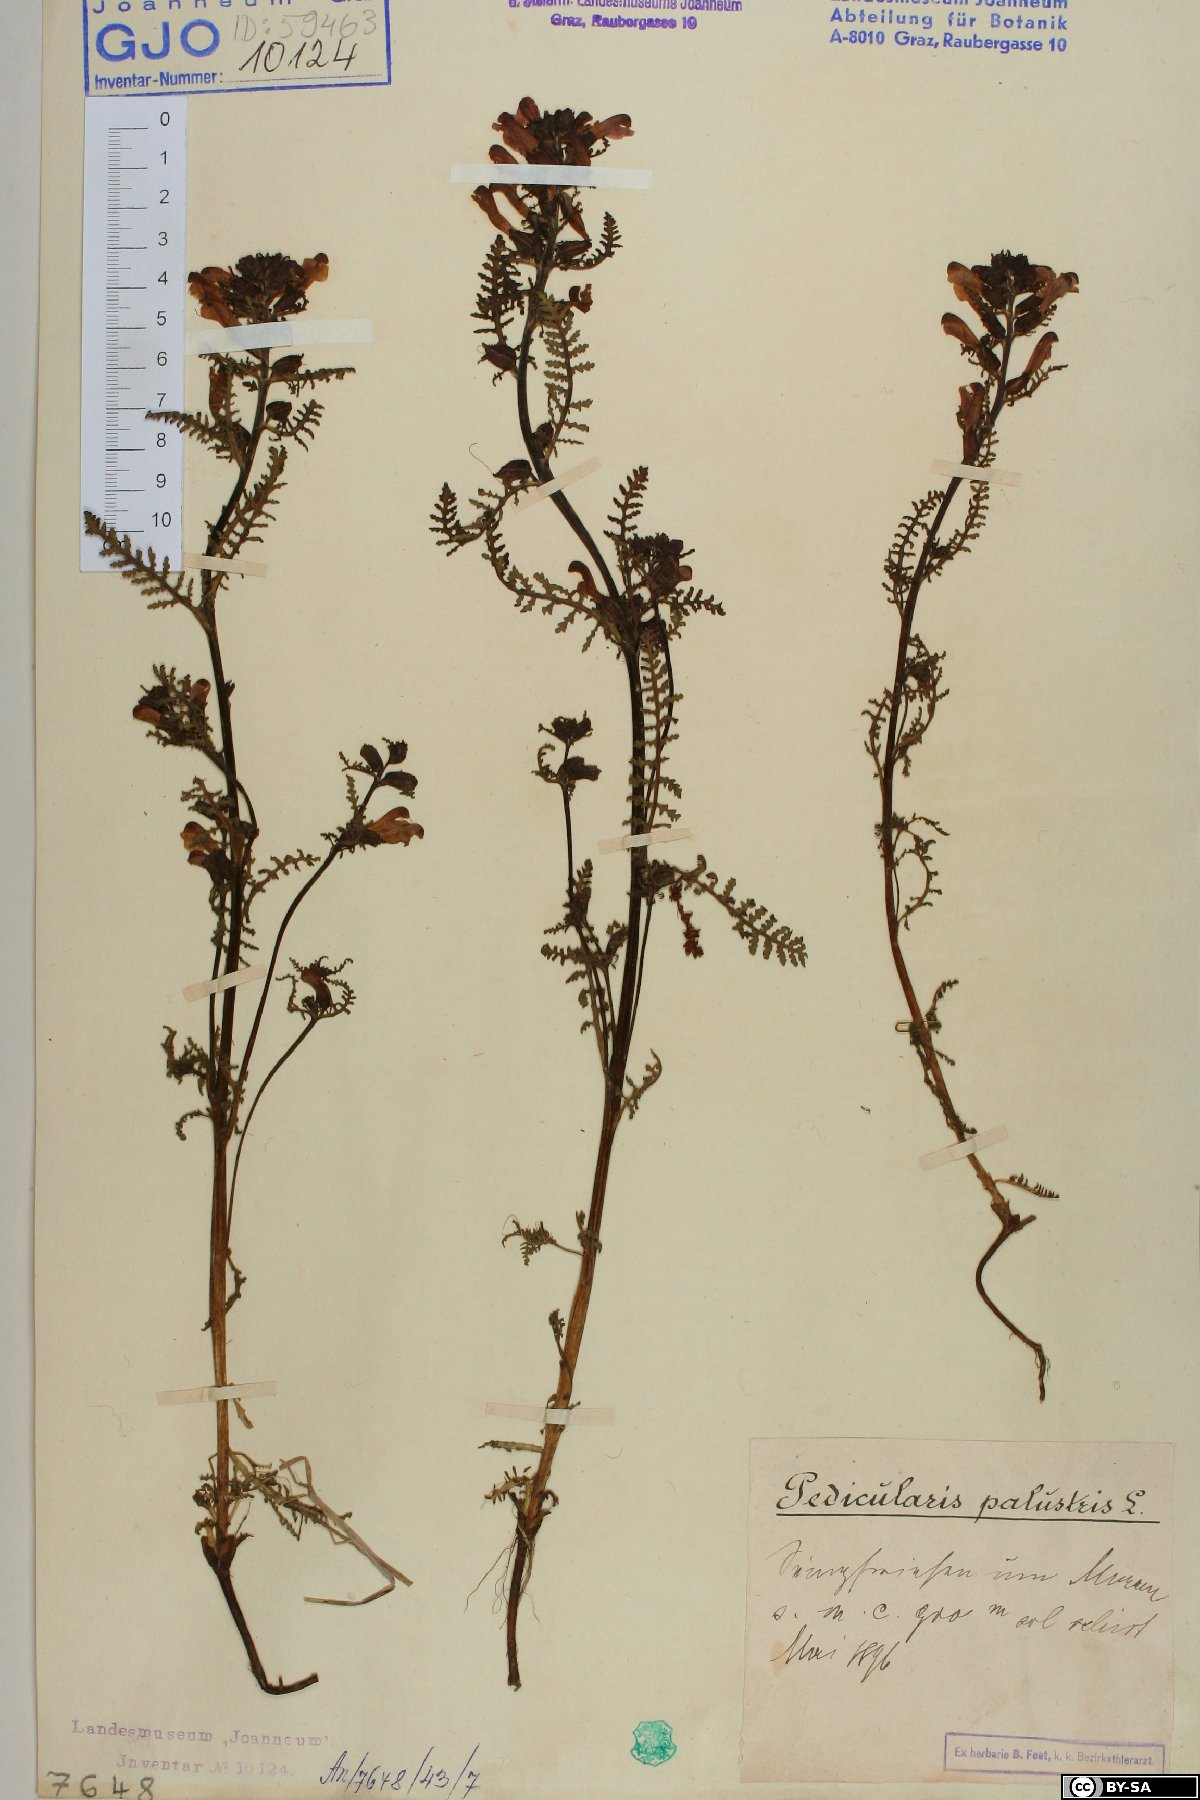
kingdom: Plantae
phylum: Tracheophyta
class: Magnoliopsida
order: Lamiales
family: Orobanchaceae
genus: Pedicularis
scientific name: Pedicularis palustris
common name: Marsh lousewort
